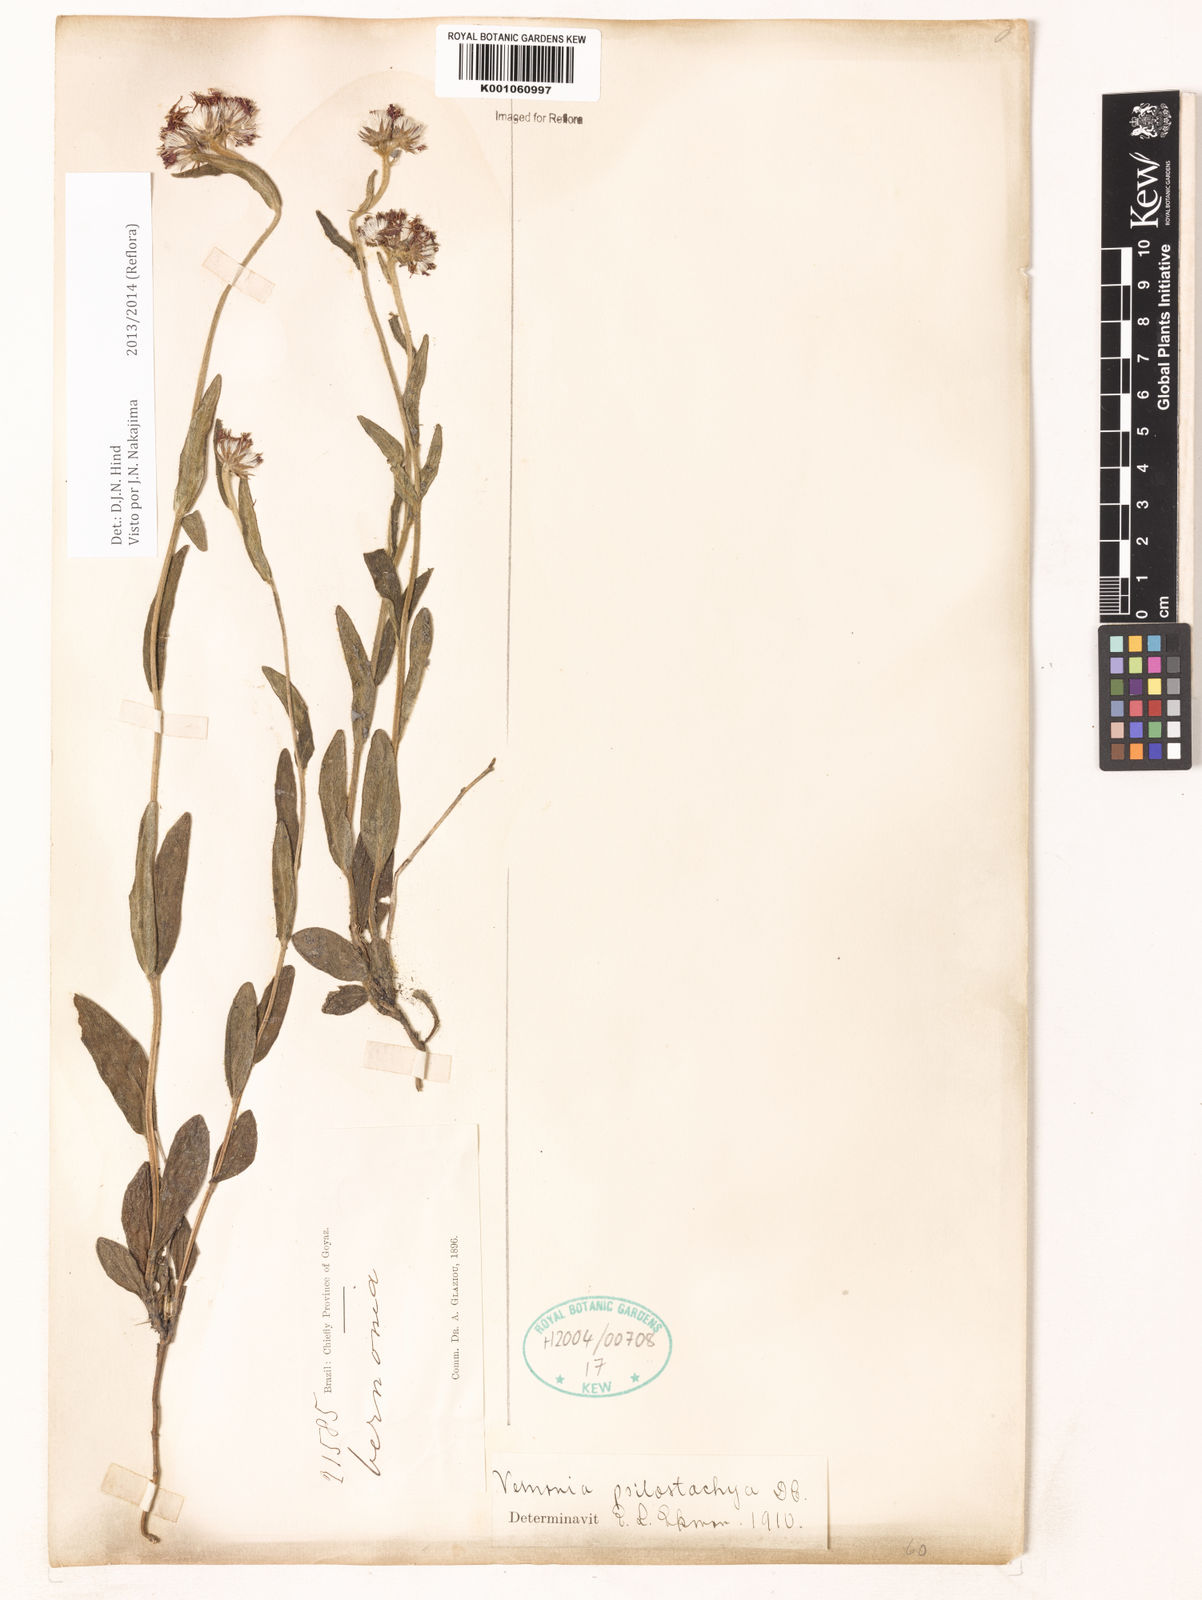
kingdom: Plantae
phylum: Tracheophyta
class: Magnoliopsida
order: Asterales
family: Asteraceae
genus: Vernonia
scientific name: Vernonia depauperata
